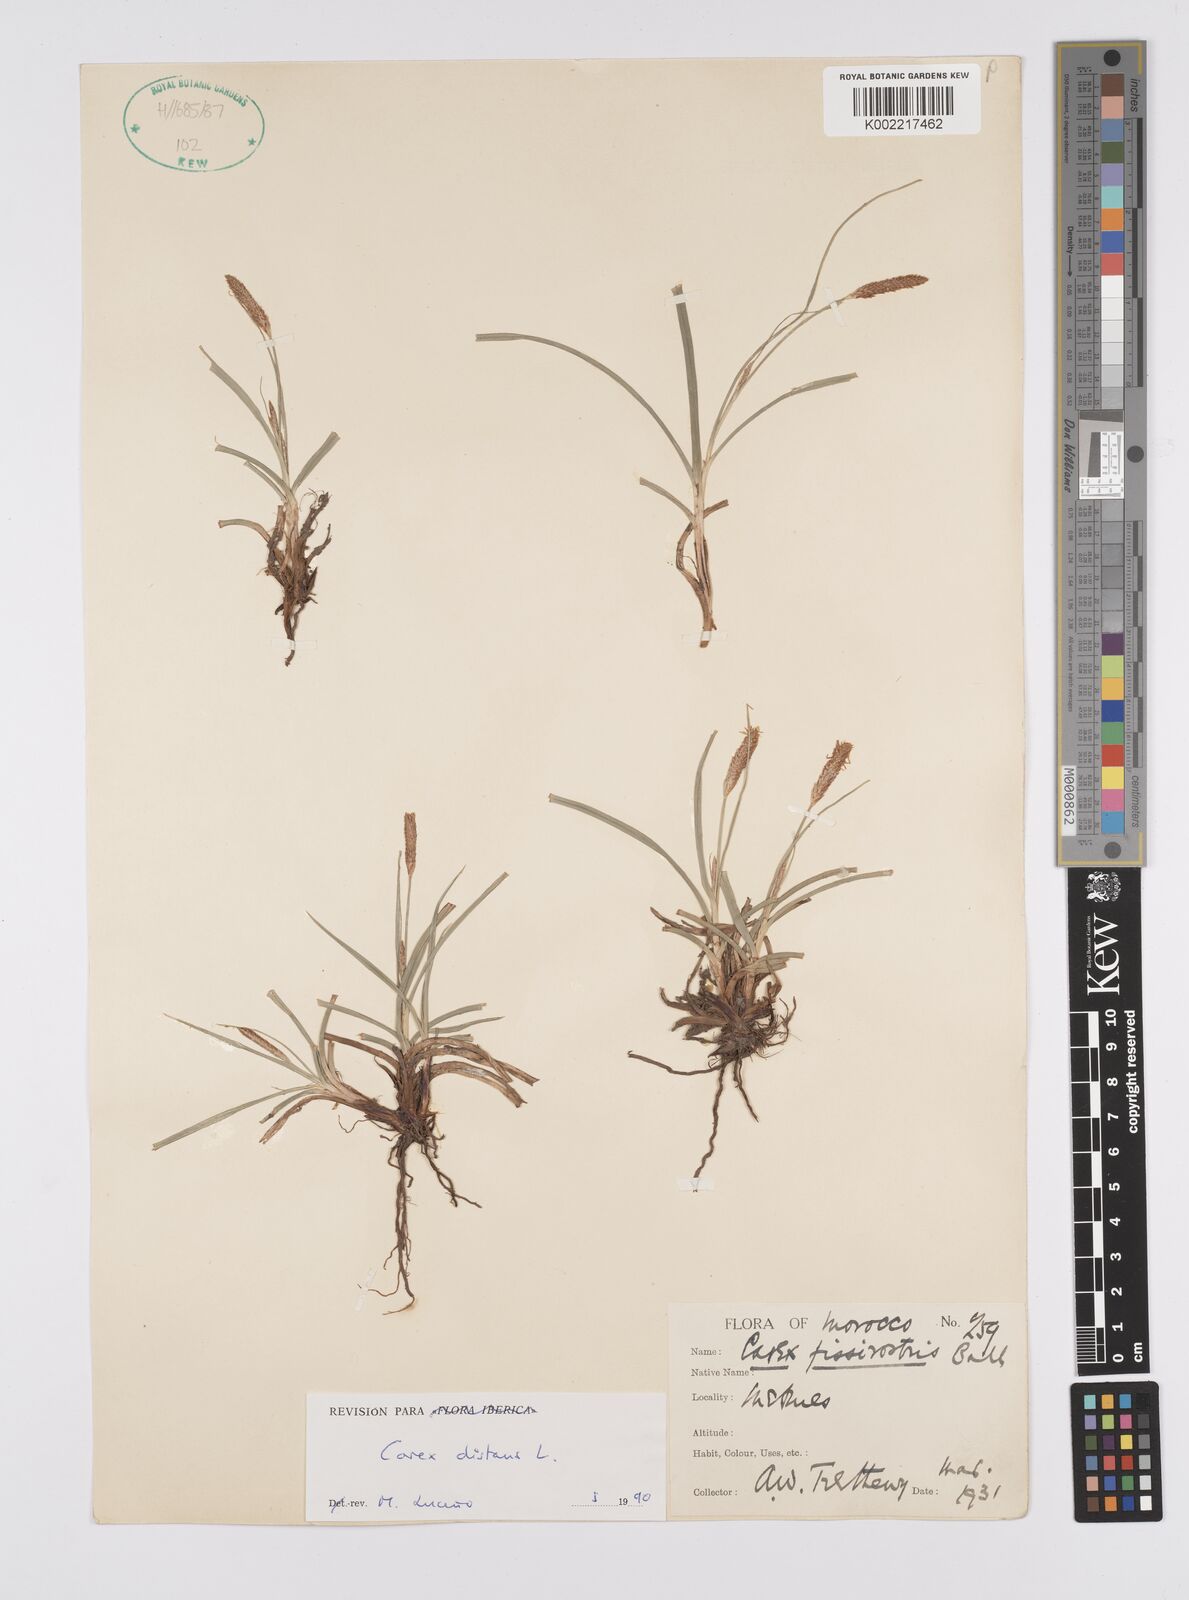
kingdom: Plantae
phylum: Tracheophyta
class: Liliopsida
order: Poales
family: Cyperaceae
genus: Carex
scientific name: Carex distans
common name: Distant sedge
